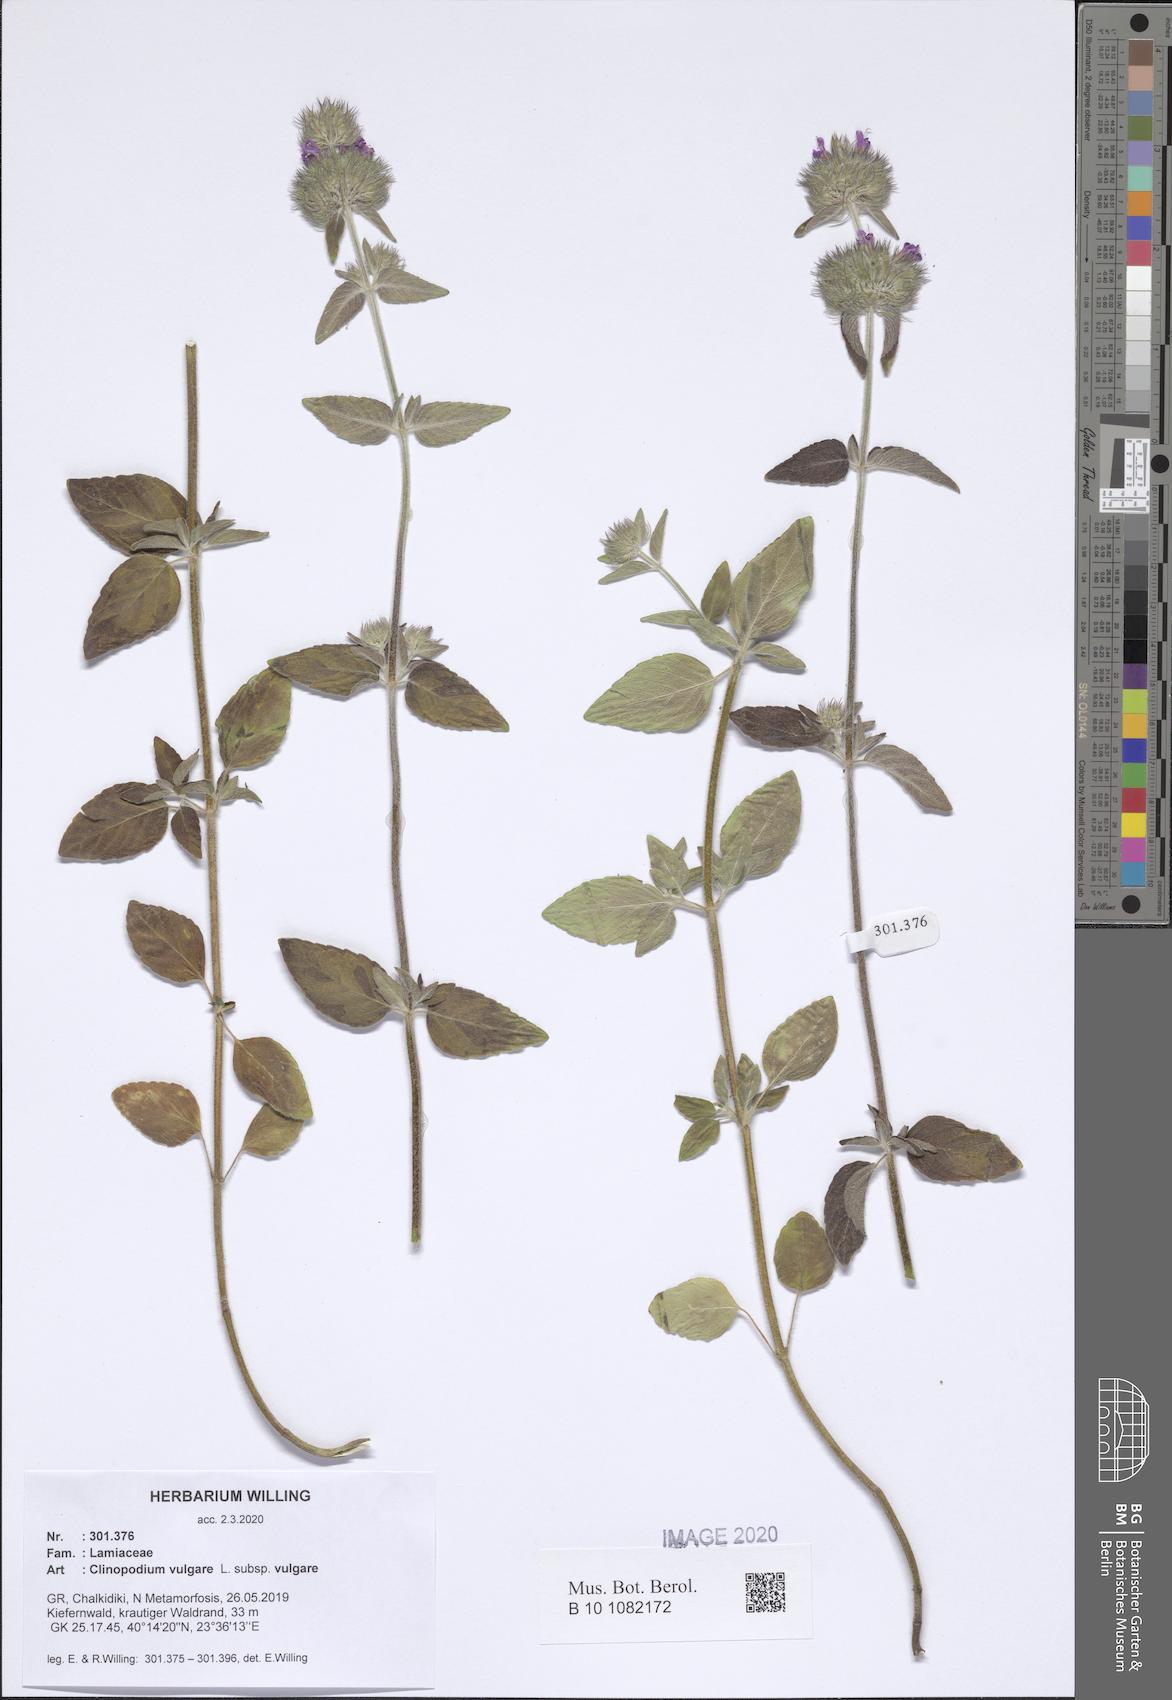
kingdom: Plantae
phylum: Tracheophyta
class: Magnoliopsida
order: Lamiales
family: Lamiaceae
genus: Clinopodium
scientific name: Clinopodium vulgare
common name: Wild basil
